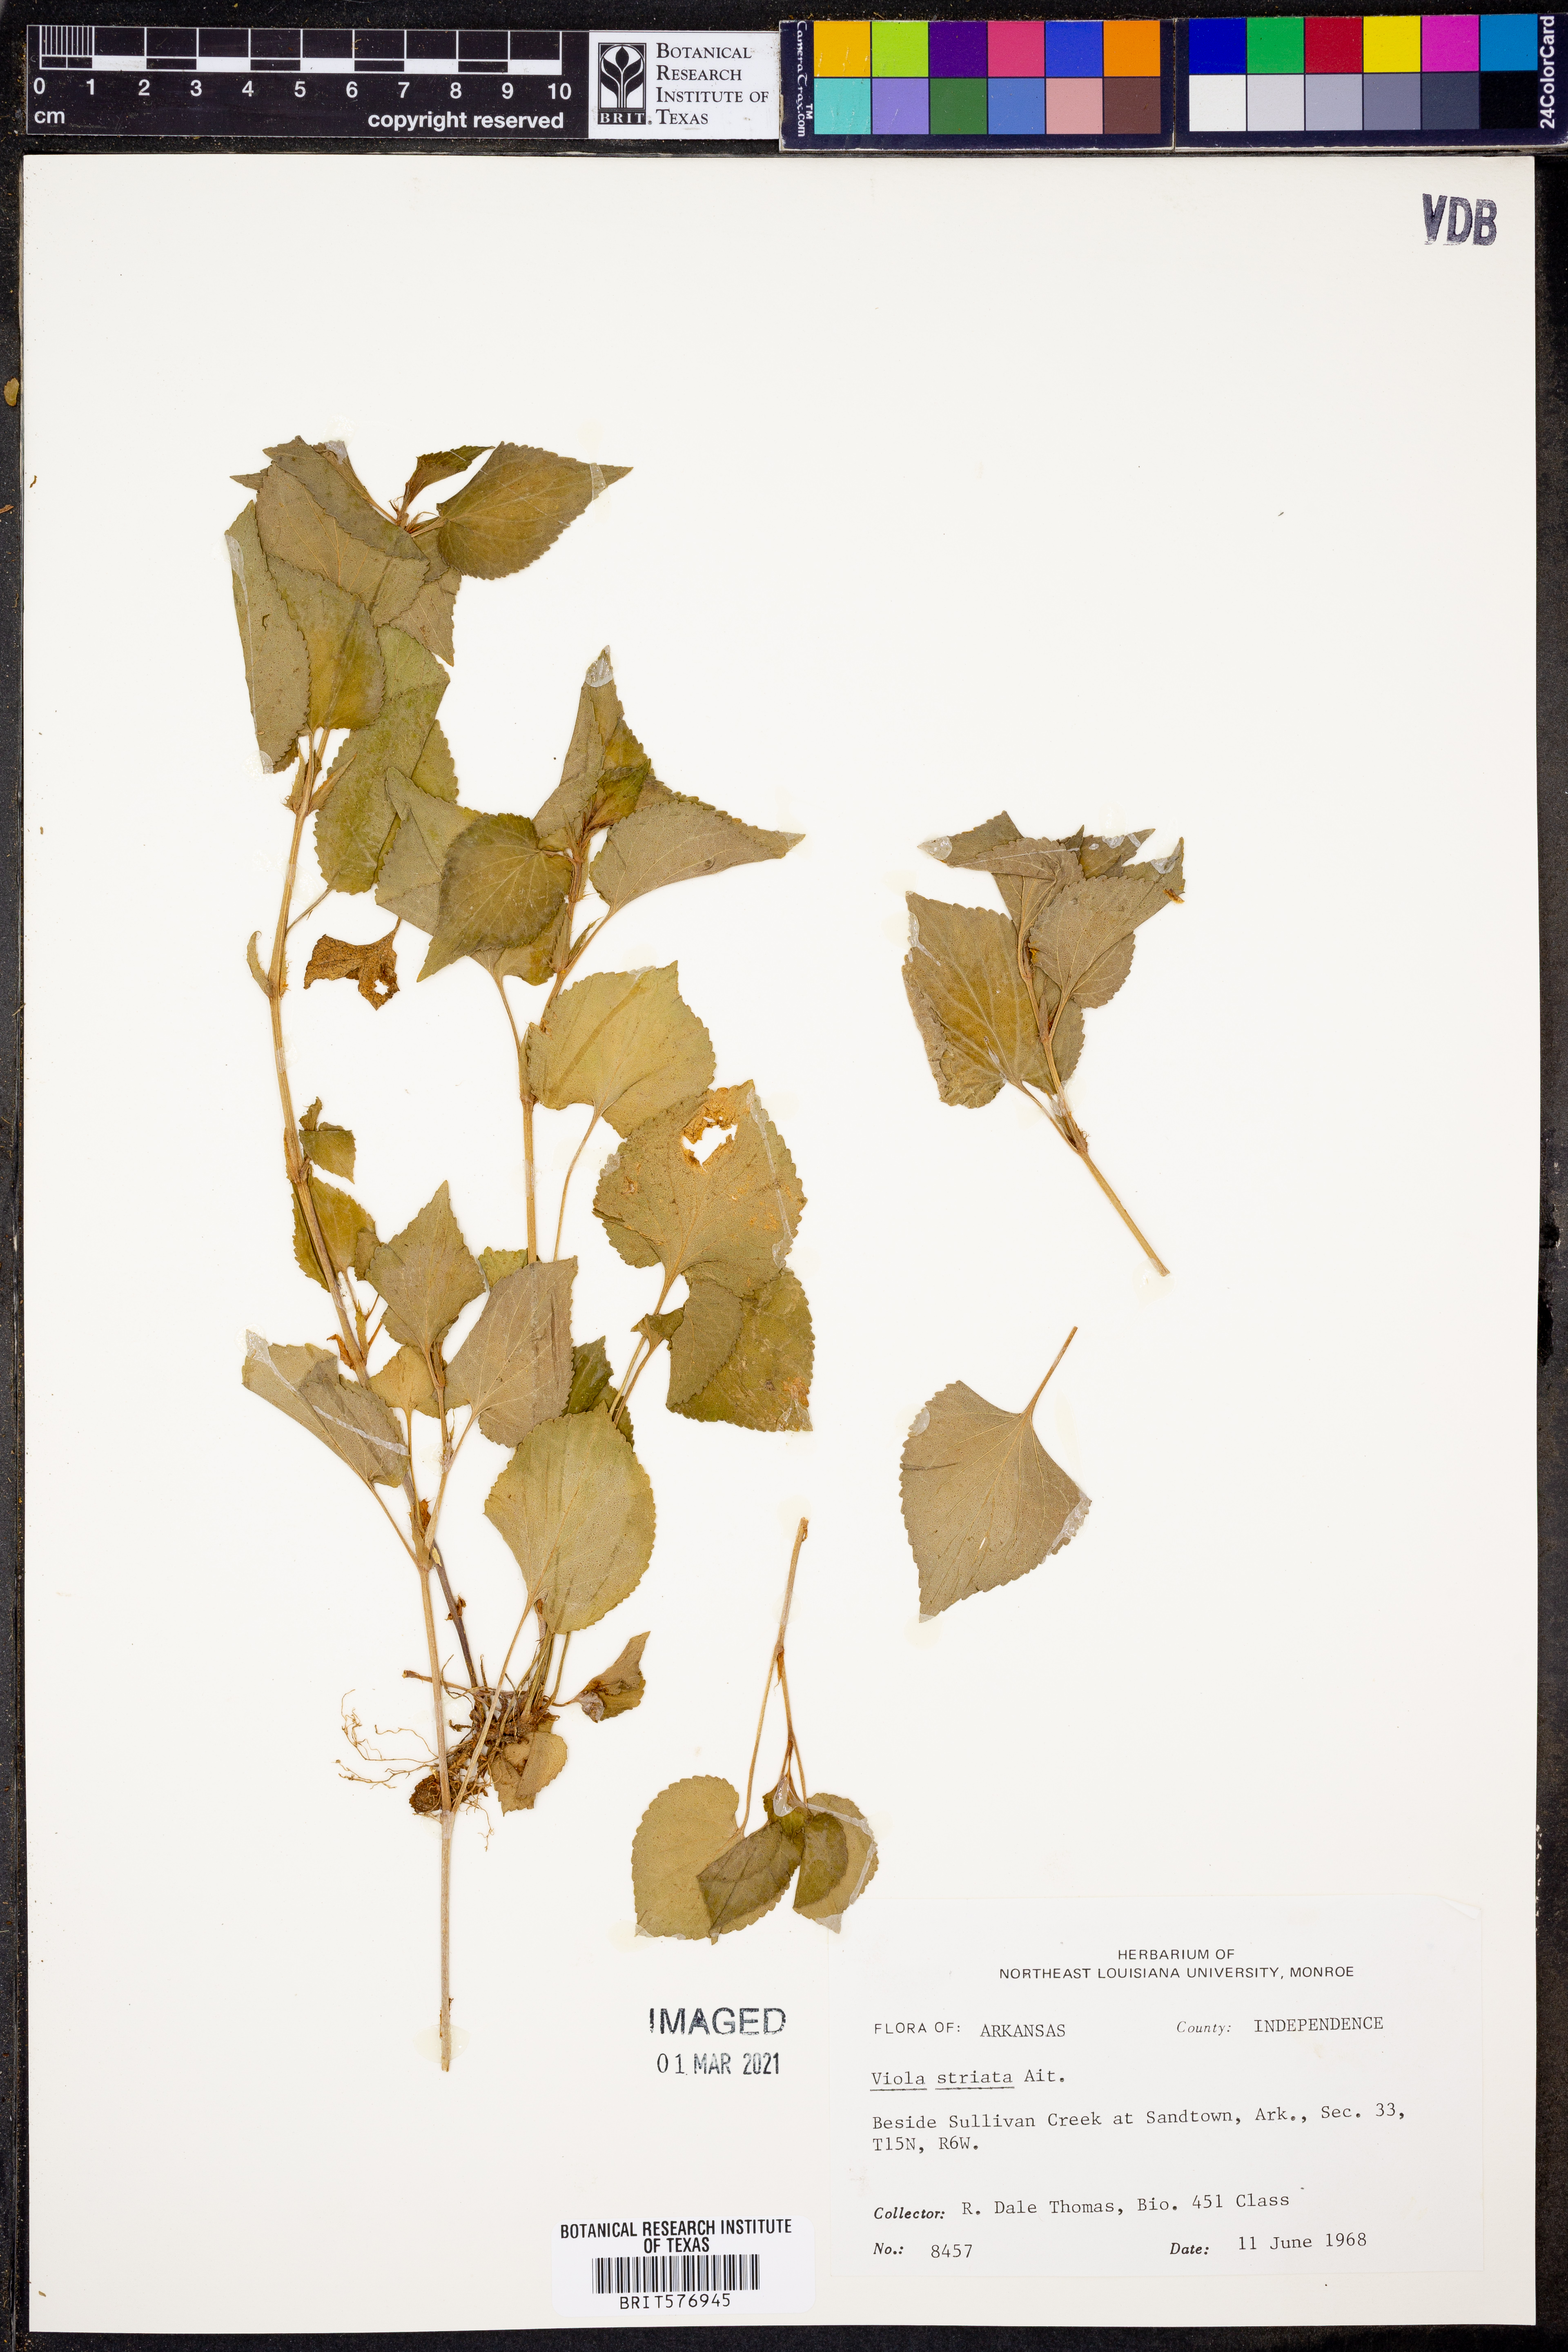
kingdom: Plantae
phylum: Tracheophyta
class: Magnoliopsida
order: Malpighiales
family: Violaceae
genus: Viola
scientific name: Viola striata
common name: Cream violet
